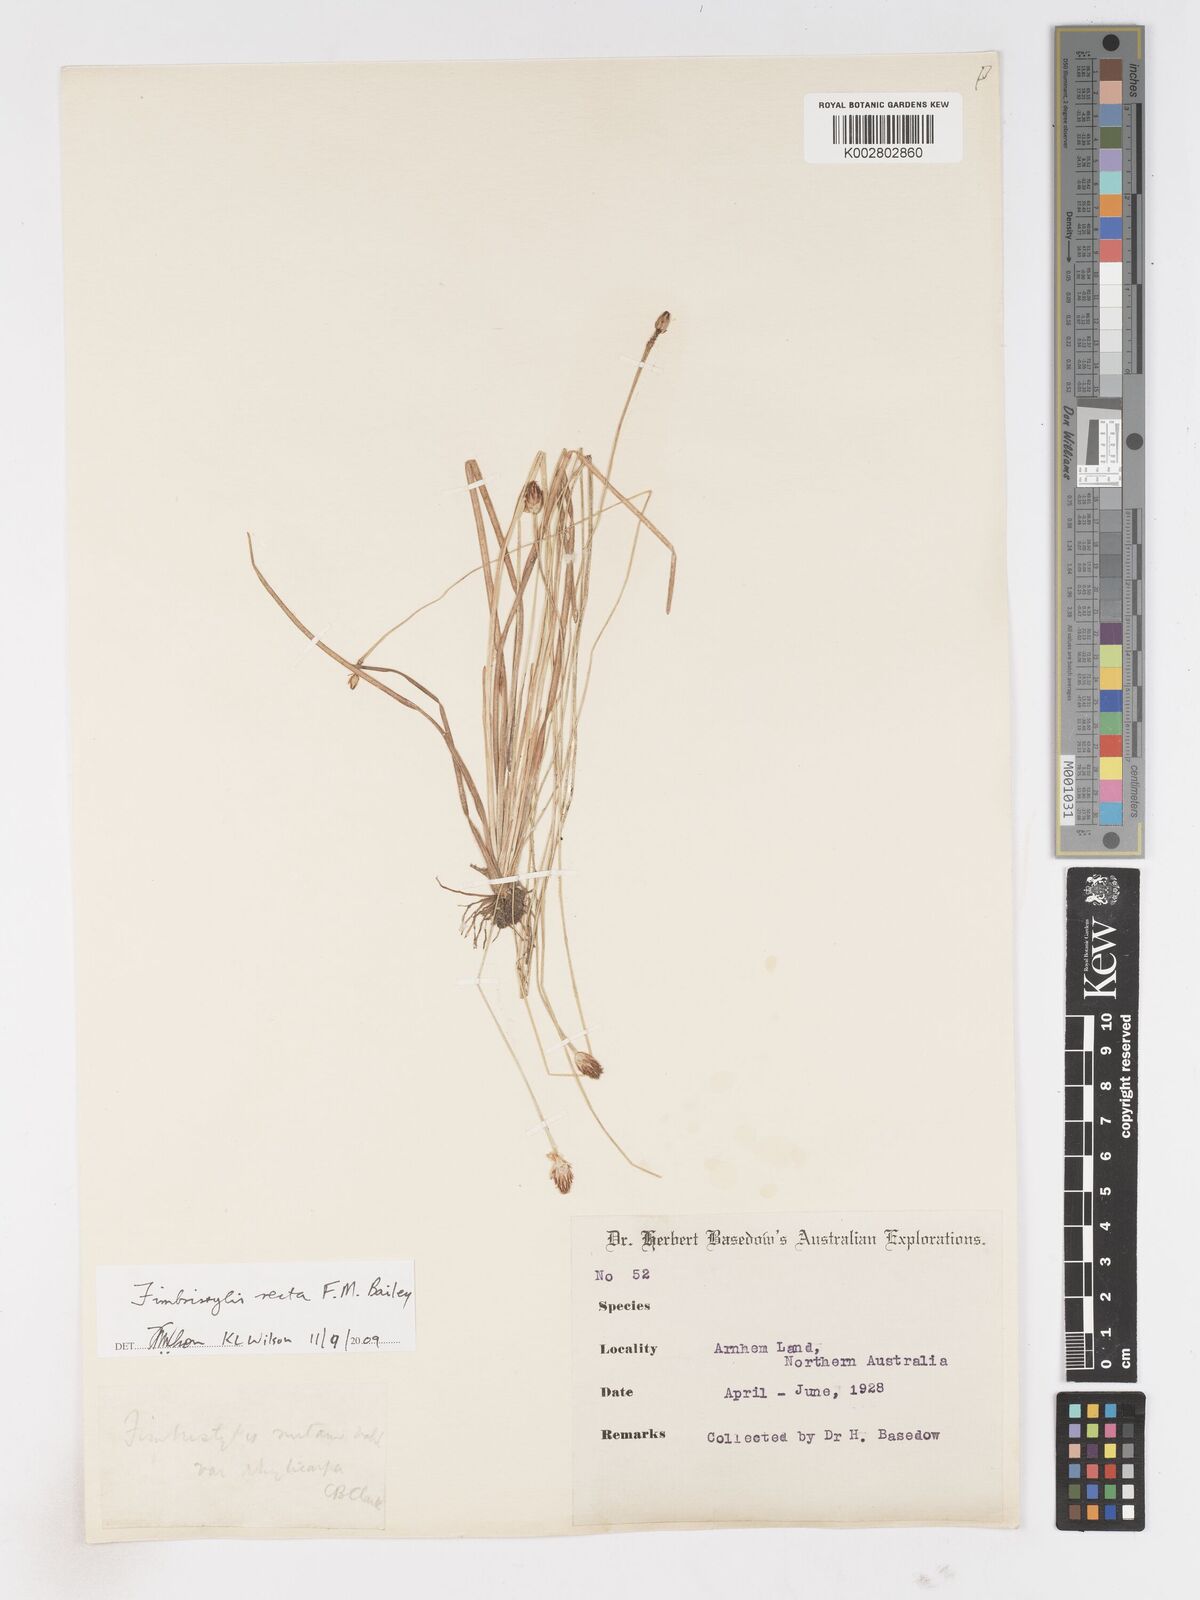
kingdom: Plantae
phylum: Tracheophyta
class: Liliopsida
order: Poales
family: Cyperaceae
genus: Fimbristylis
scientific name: Fimbristylis recta
